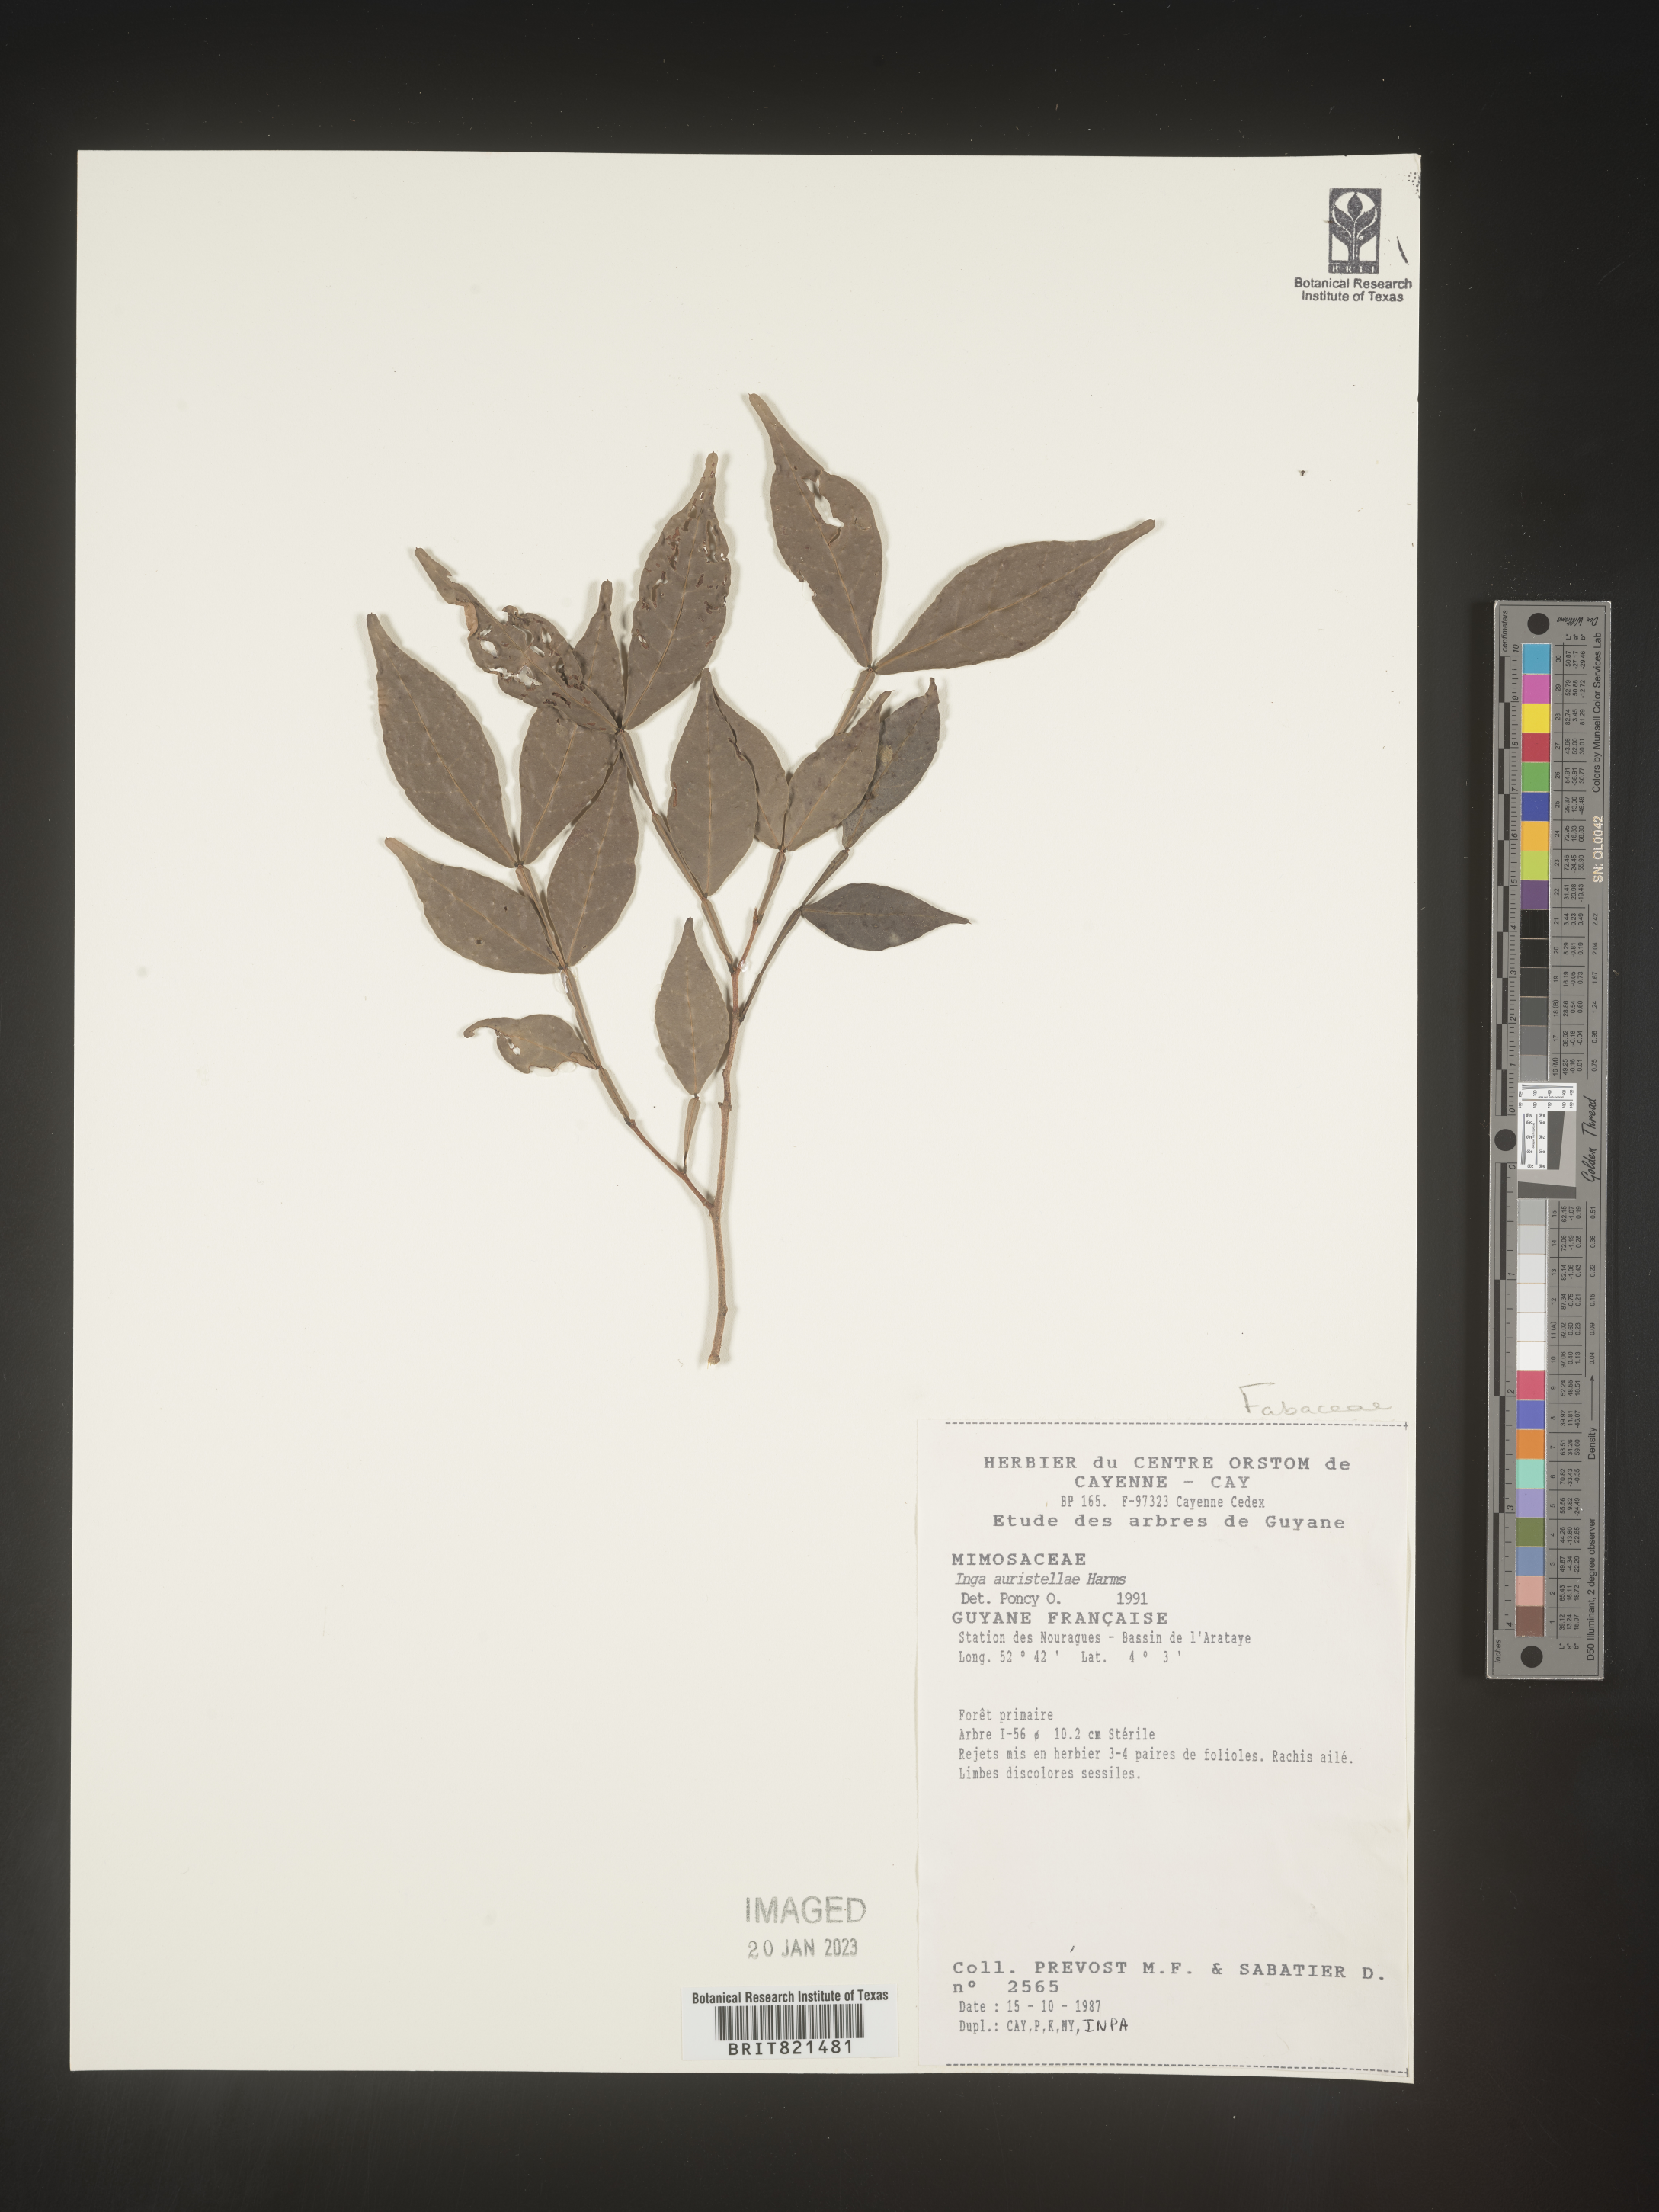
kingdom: Plantae
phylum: Tracheophyta
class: Magnoliopsida
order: Fabales
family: Fabaceae
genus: Inga
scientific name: Inga
